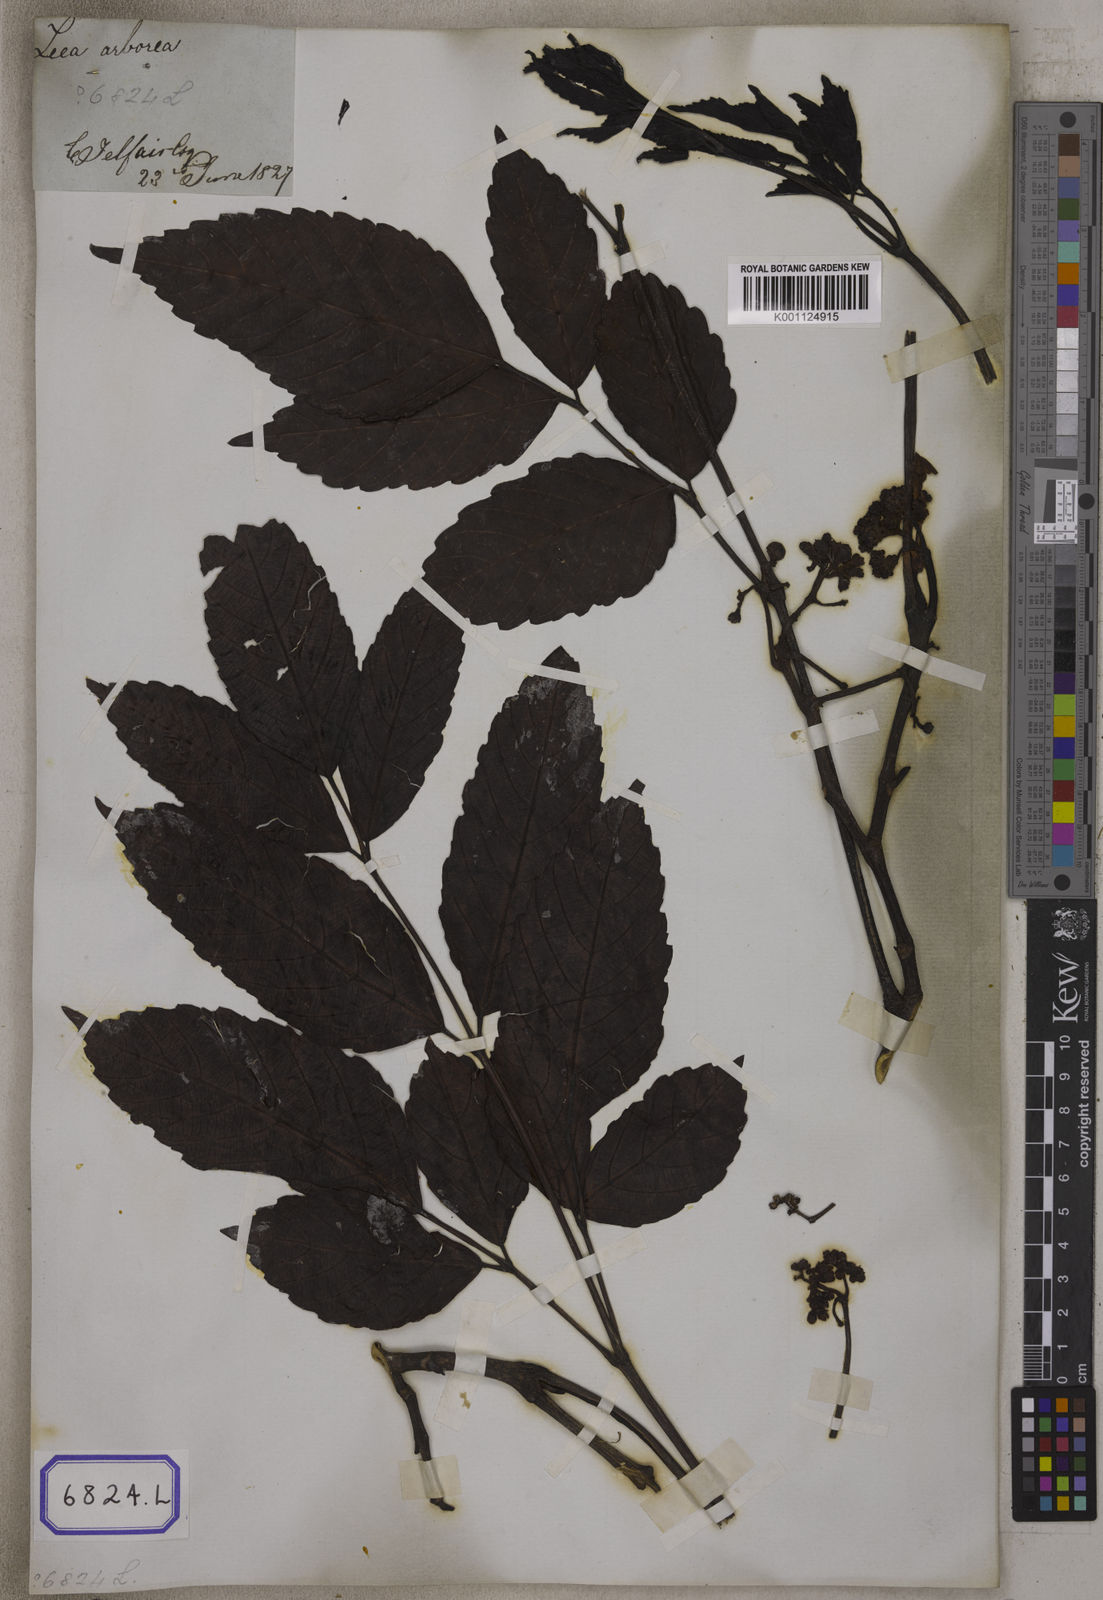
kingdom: Plantae
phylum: Tracheophyta
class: Magnoliopsida
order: Vitales
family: Vitaceae
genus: Leea
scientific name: Leea
